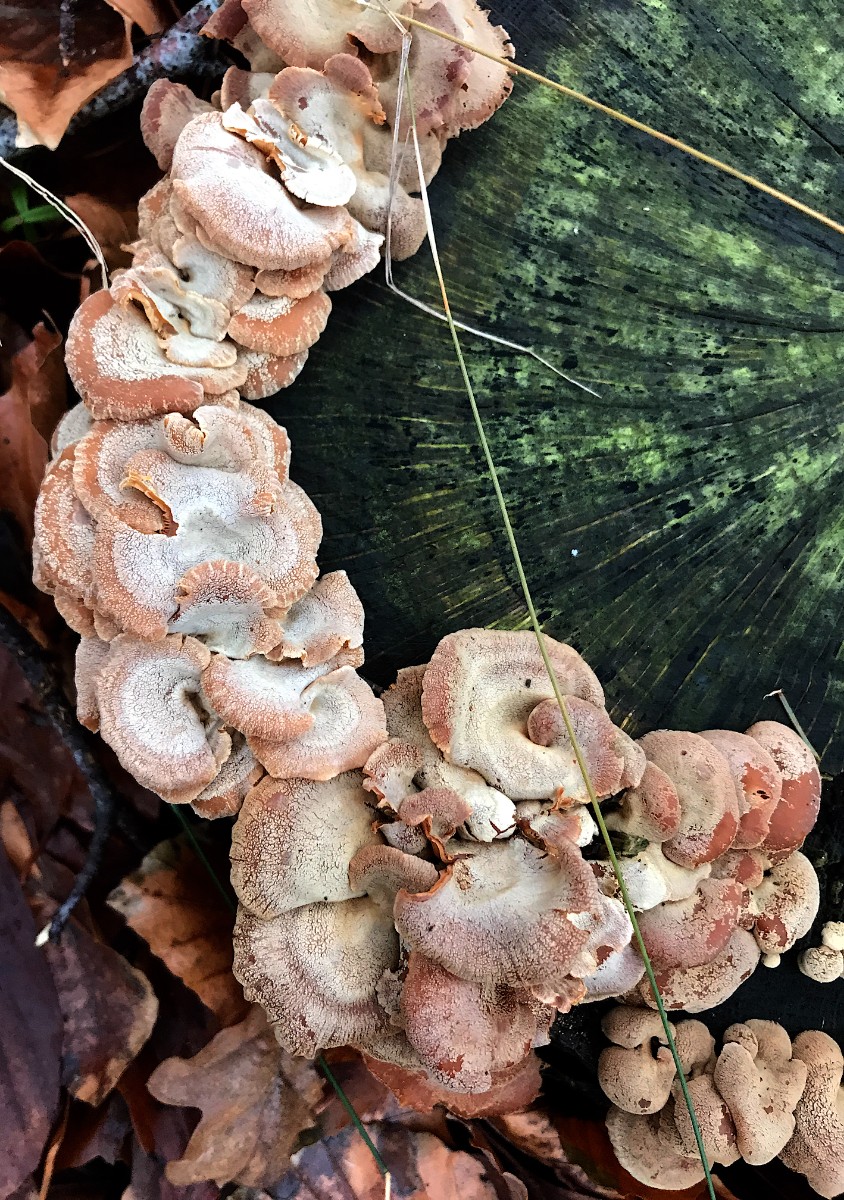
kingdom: Fungi
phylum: Basidiomycota
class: Agaricomycetes
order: Agaricales
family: Mycenaceae
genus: Panellus
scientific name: Panellus stipticus
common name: kliddet epaulethat
